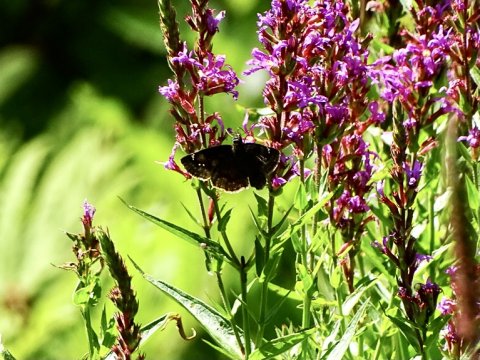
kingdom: Animalia
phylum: Arthropoda
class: Insecta
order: Lepidoptera
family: Hesperiidae
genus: Gesta
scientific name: Gesta
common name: Wild Indigo Duskywing
